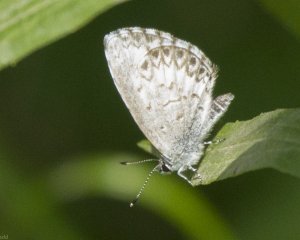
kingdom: Animalia
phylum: Arthropoda
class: Insecta
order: Lepidoptera
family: Lycaenidae
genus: Cyaniris
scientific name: Cyaniris neglecta
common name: Summer Azure
